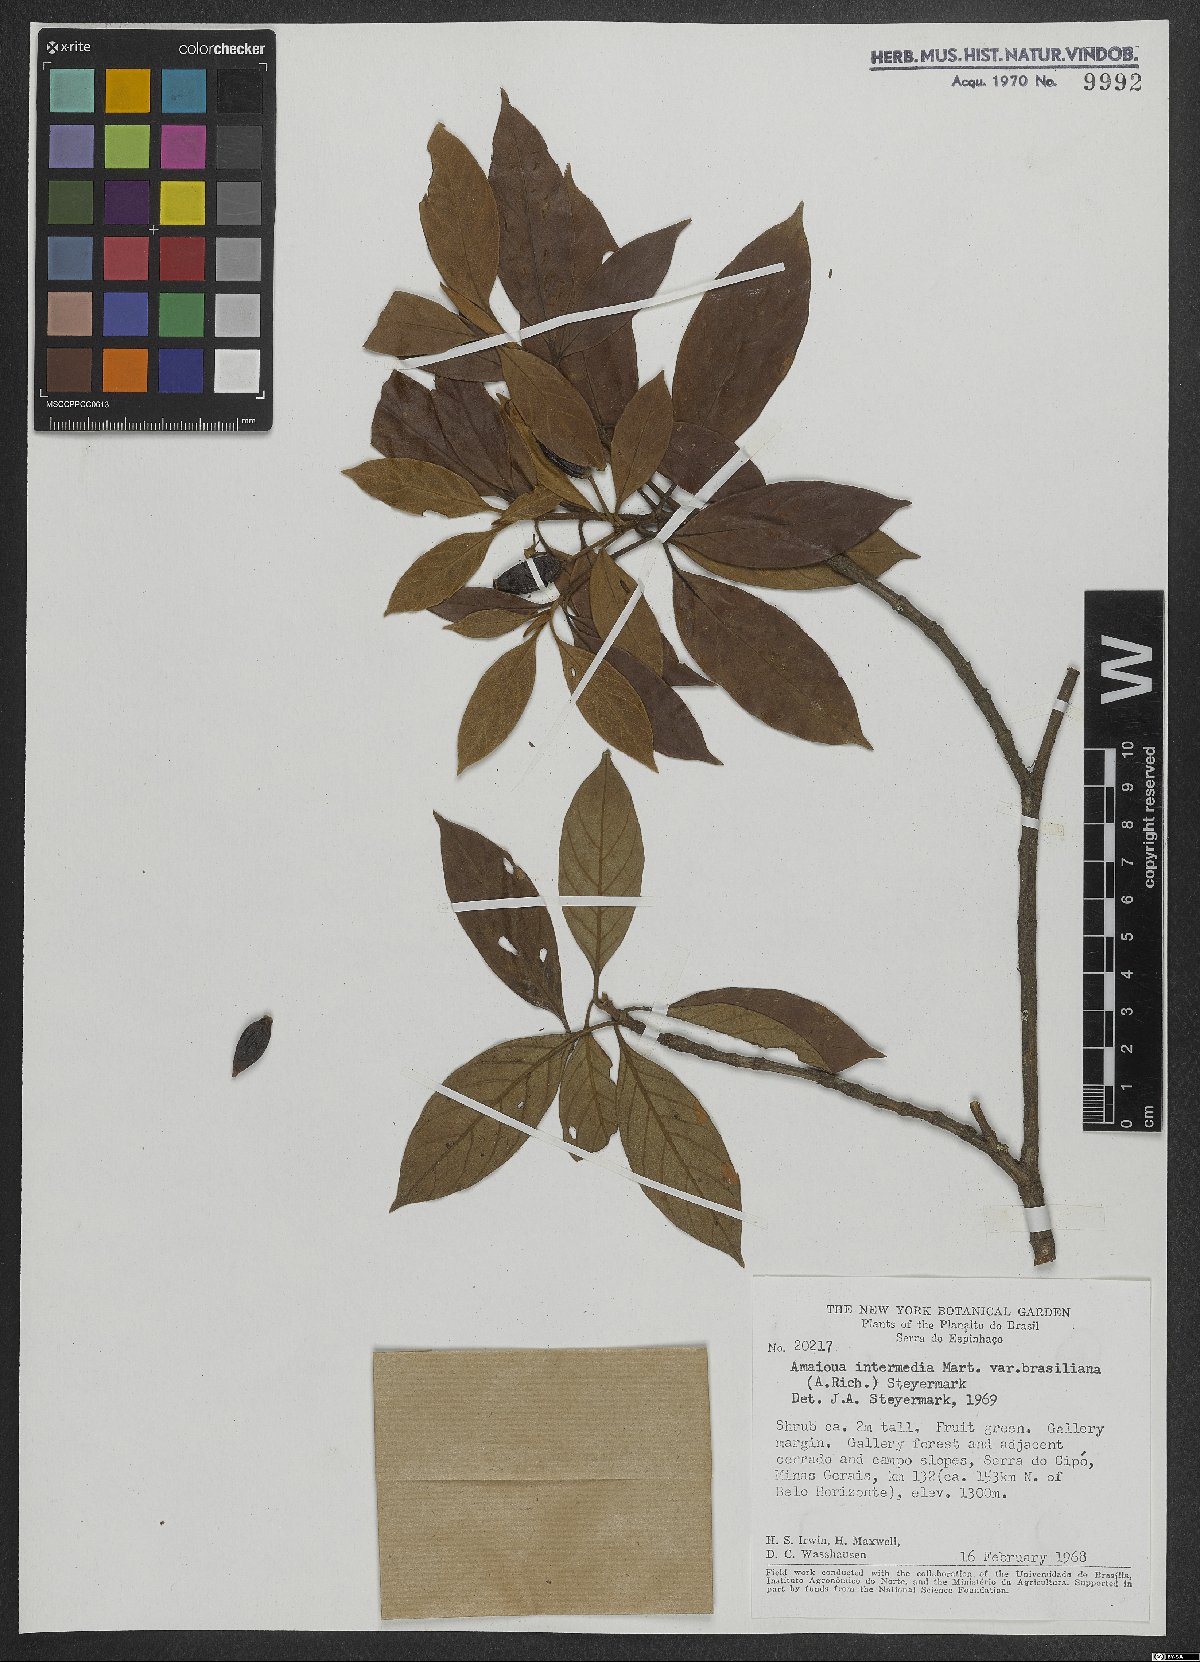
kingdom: Plantae
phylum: Tracheophyta
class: Magnoliopsida
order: Gentianales
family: Rubiaceae
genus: Amaioua
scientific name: Amaioua intermedia
